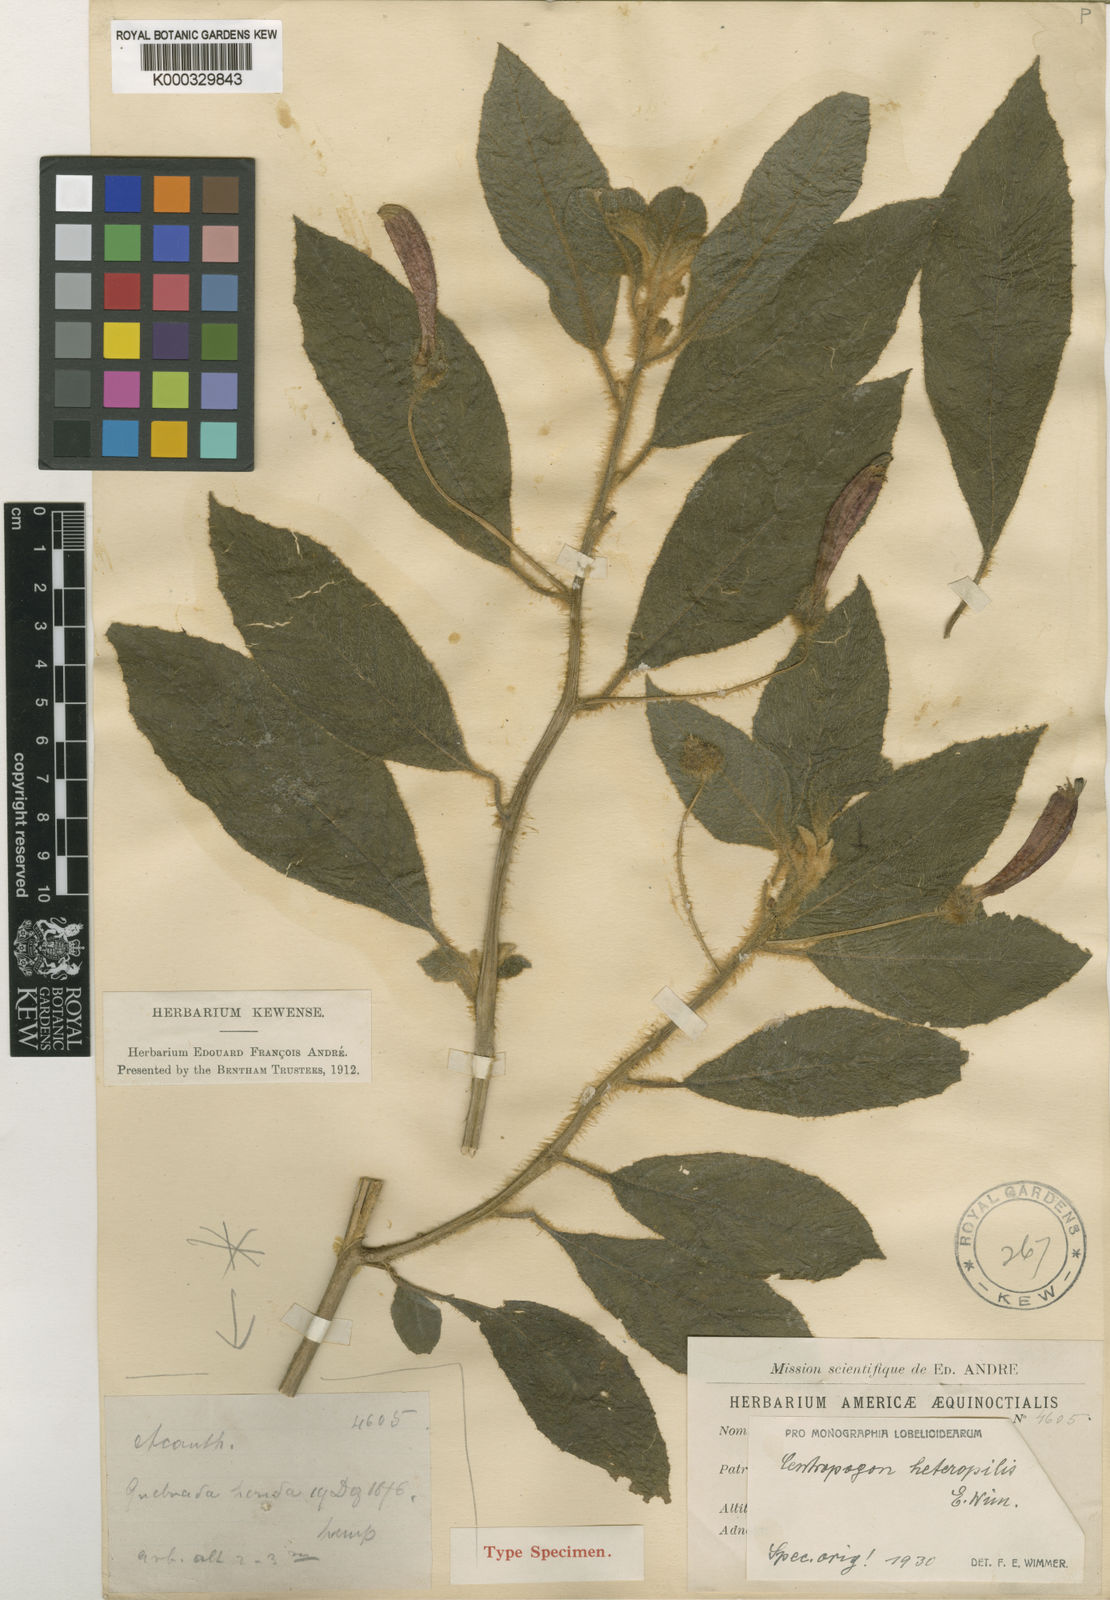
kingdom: Plantae
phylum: Tracheophyta
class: Magnoliopsida
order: Asterales
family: Campanulaceae
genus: Centropogon
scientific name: Centropogon trichodes
